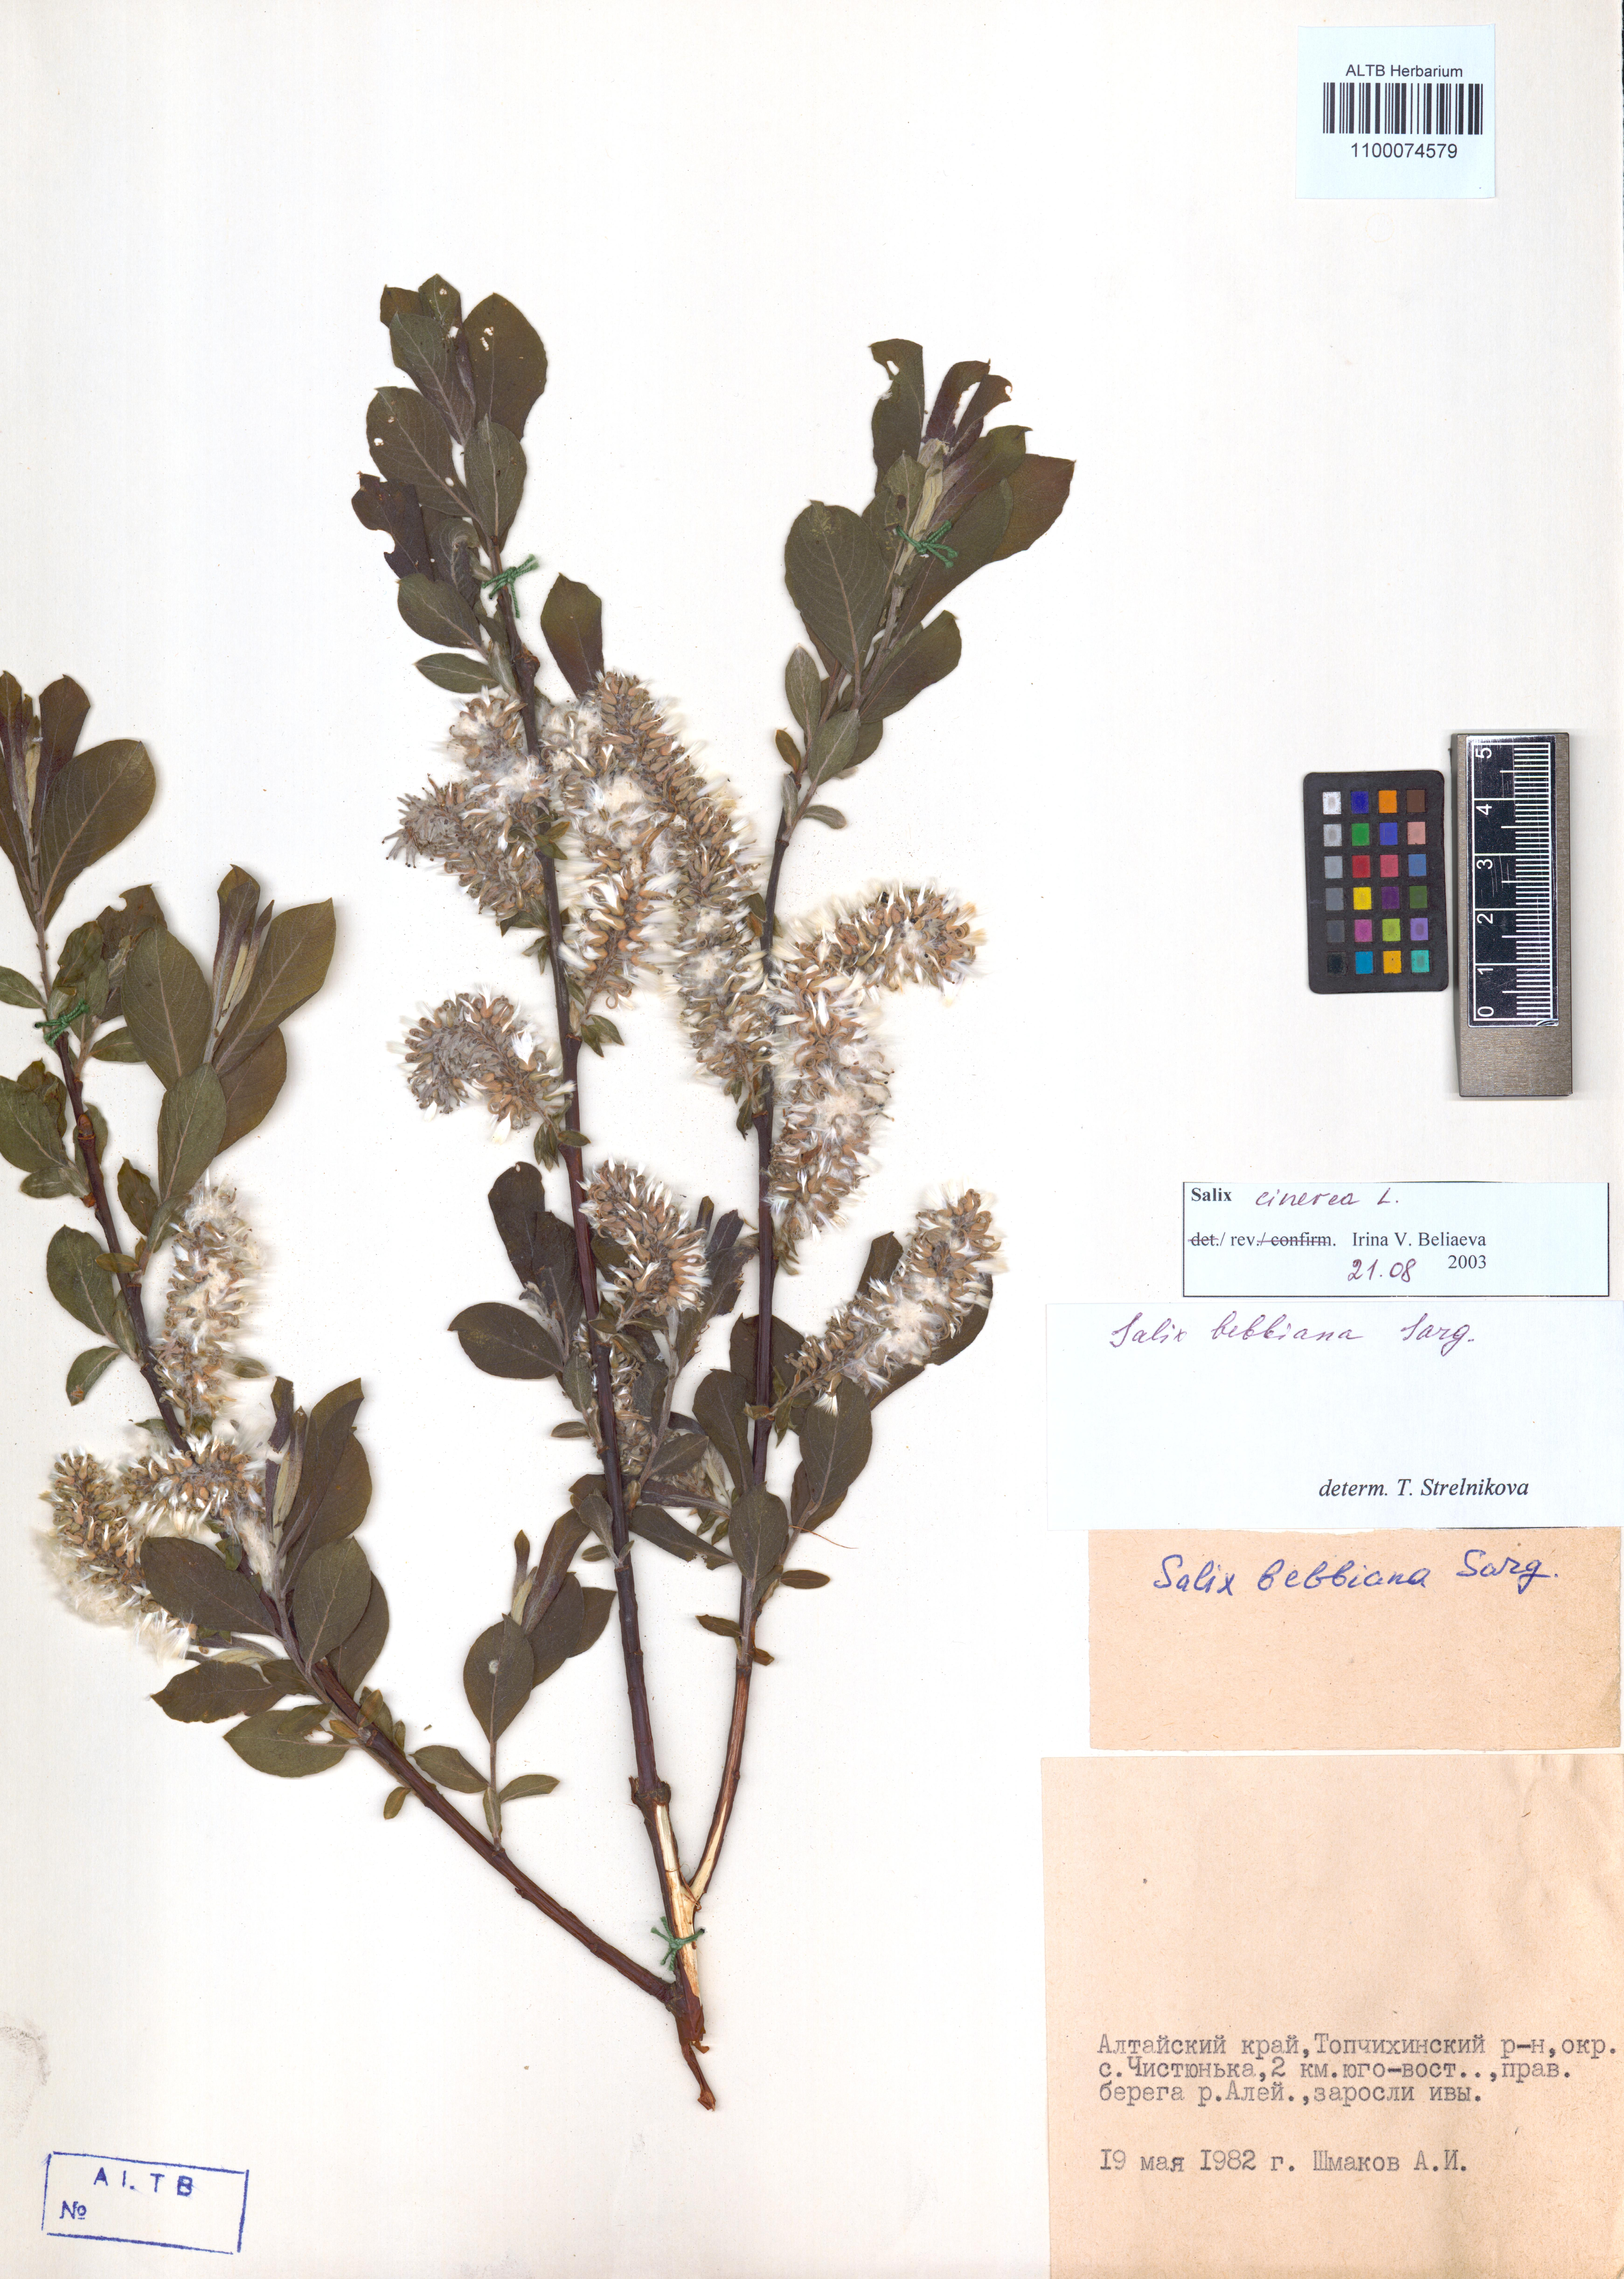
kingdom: Plantae
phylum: Tracheophyta
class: Magnoliopsida
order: Malpighiales
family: Salicaceae
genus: Salix
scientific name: Salix cinerea
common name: Common sallow
